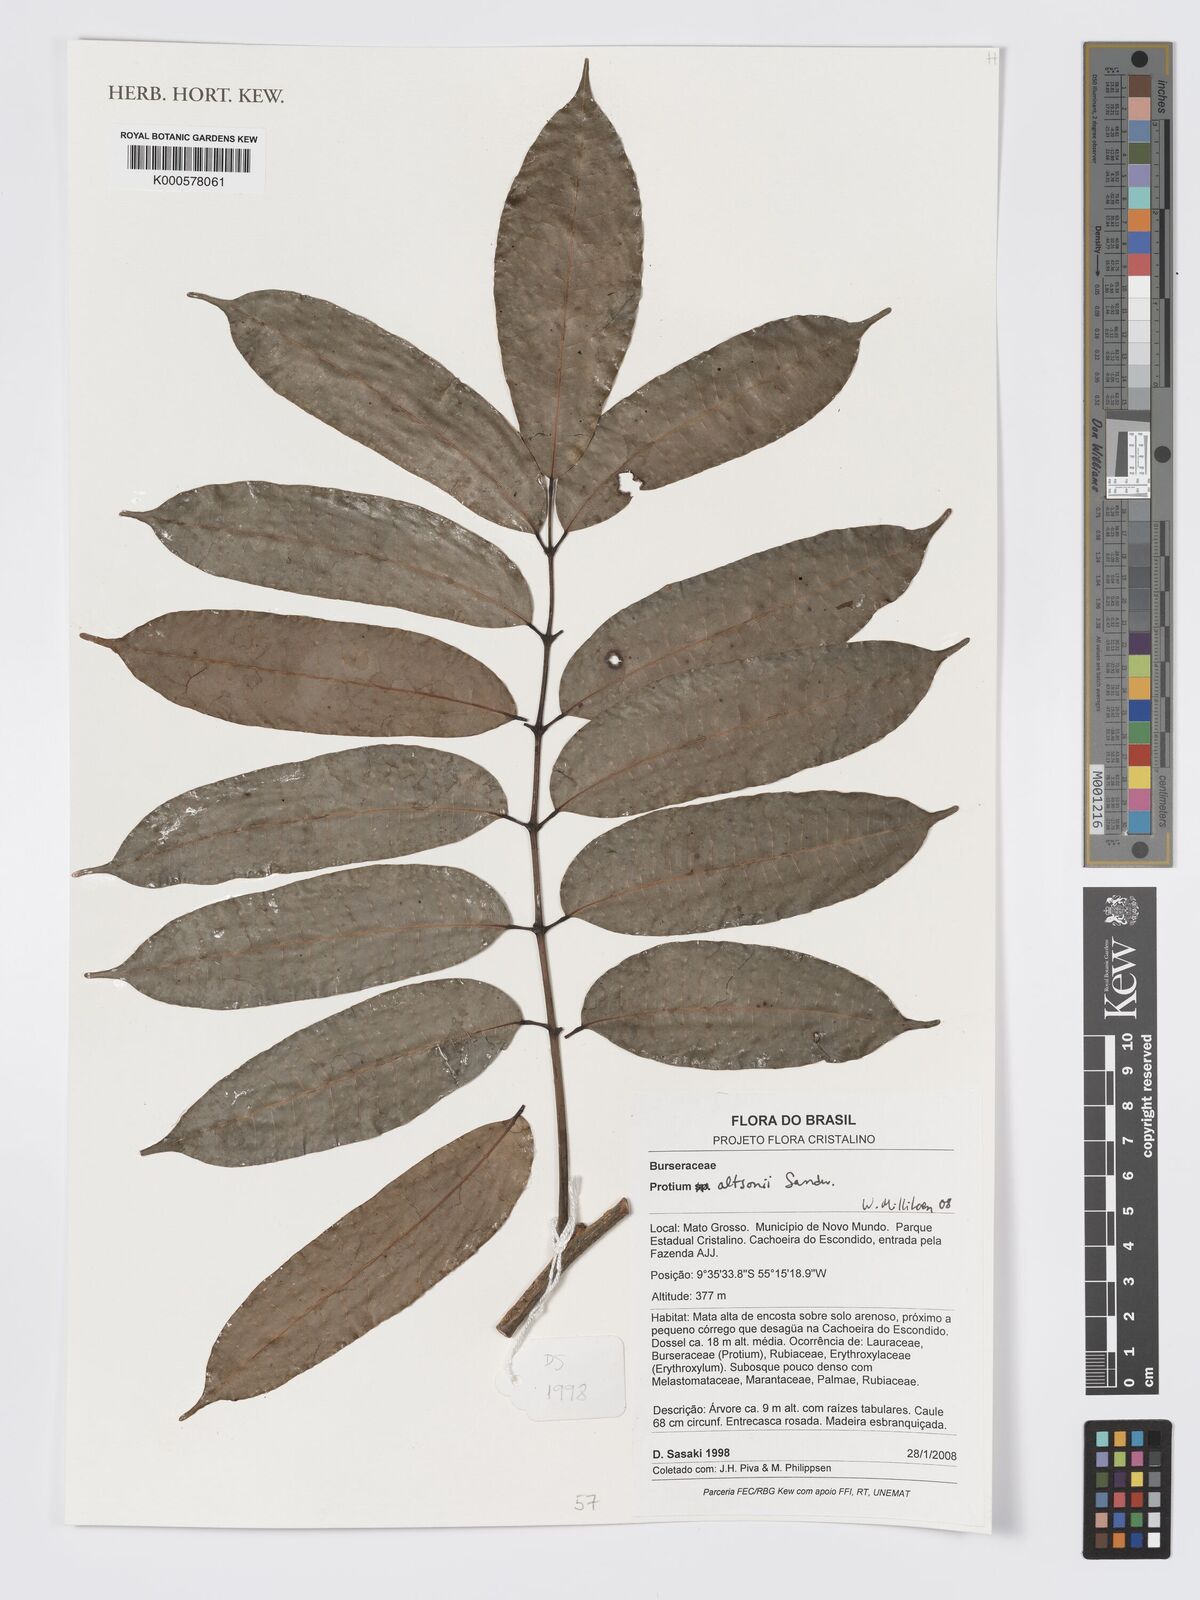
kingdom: Plantae
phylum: Tracheophyta
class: Magnoliopsida
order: Sapindales
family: Burseraceae
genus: Protium
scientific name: Protium altsonii
